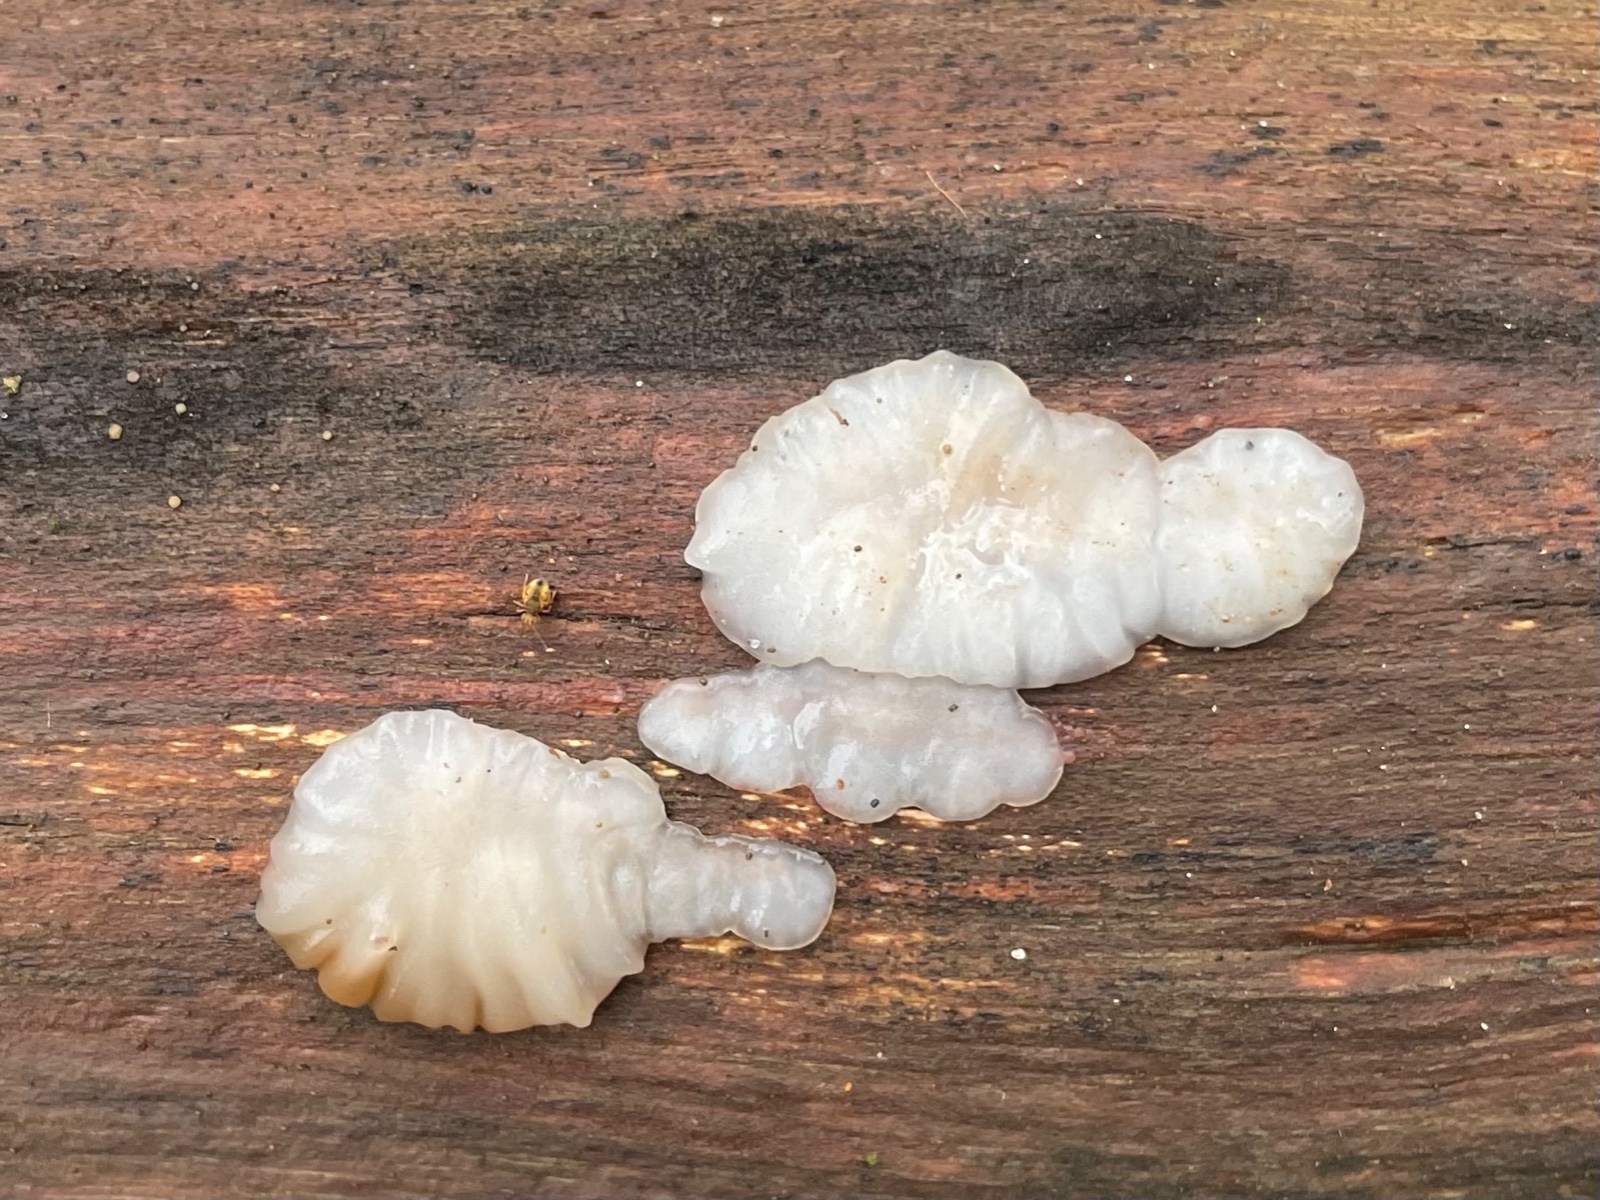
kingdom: Fungi
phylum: Basidiomycota
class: Agaricomycetes
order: Auriculariales
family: Auriculariaceae
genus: Exidia
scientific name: Exidia thuretiana
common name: hvidlig bævretop
